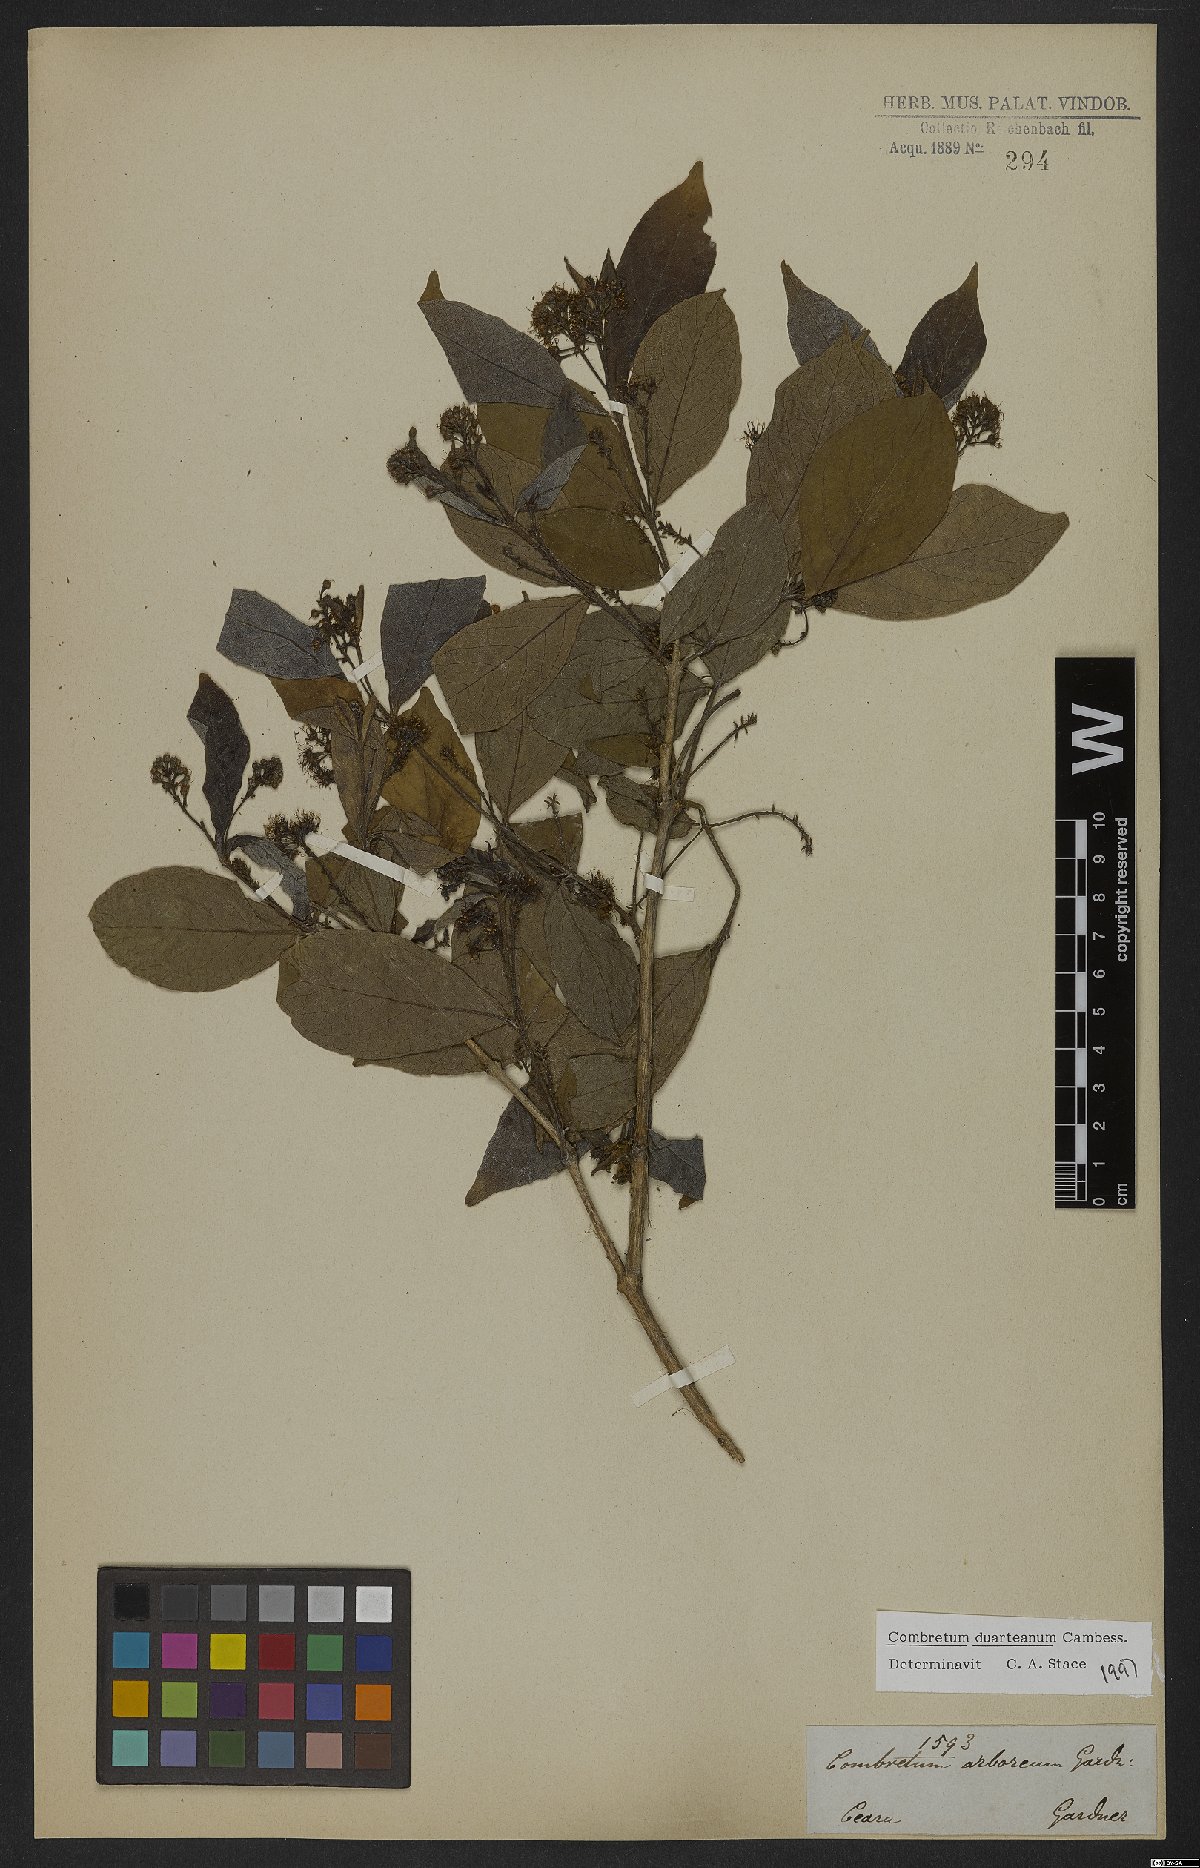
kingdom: Plantae
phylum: Tracheophyta
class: Magnoliopsida
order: Myrtales
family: Combretaceae
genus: Combretum
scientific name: Combretum duarteanum
